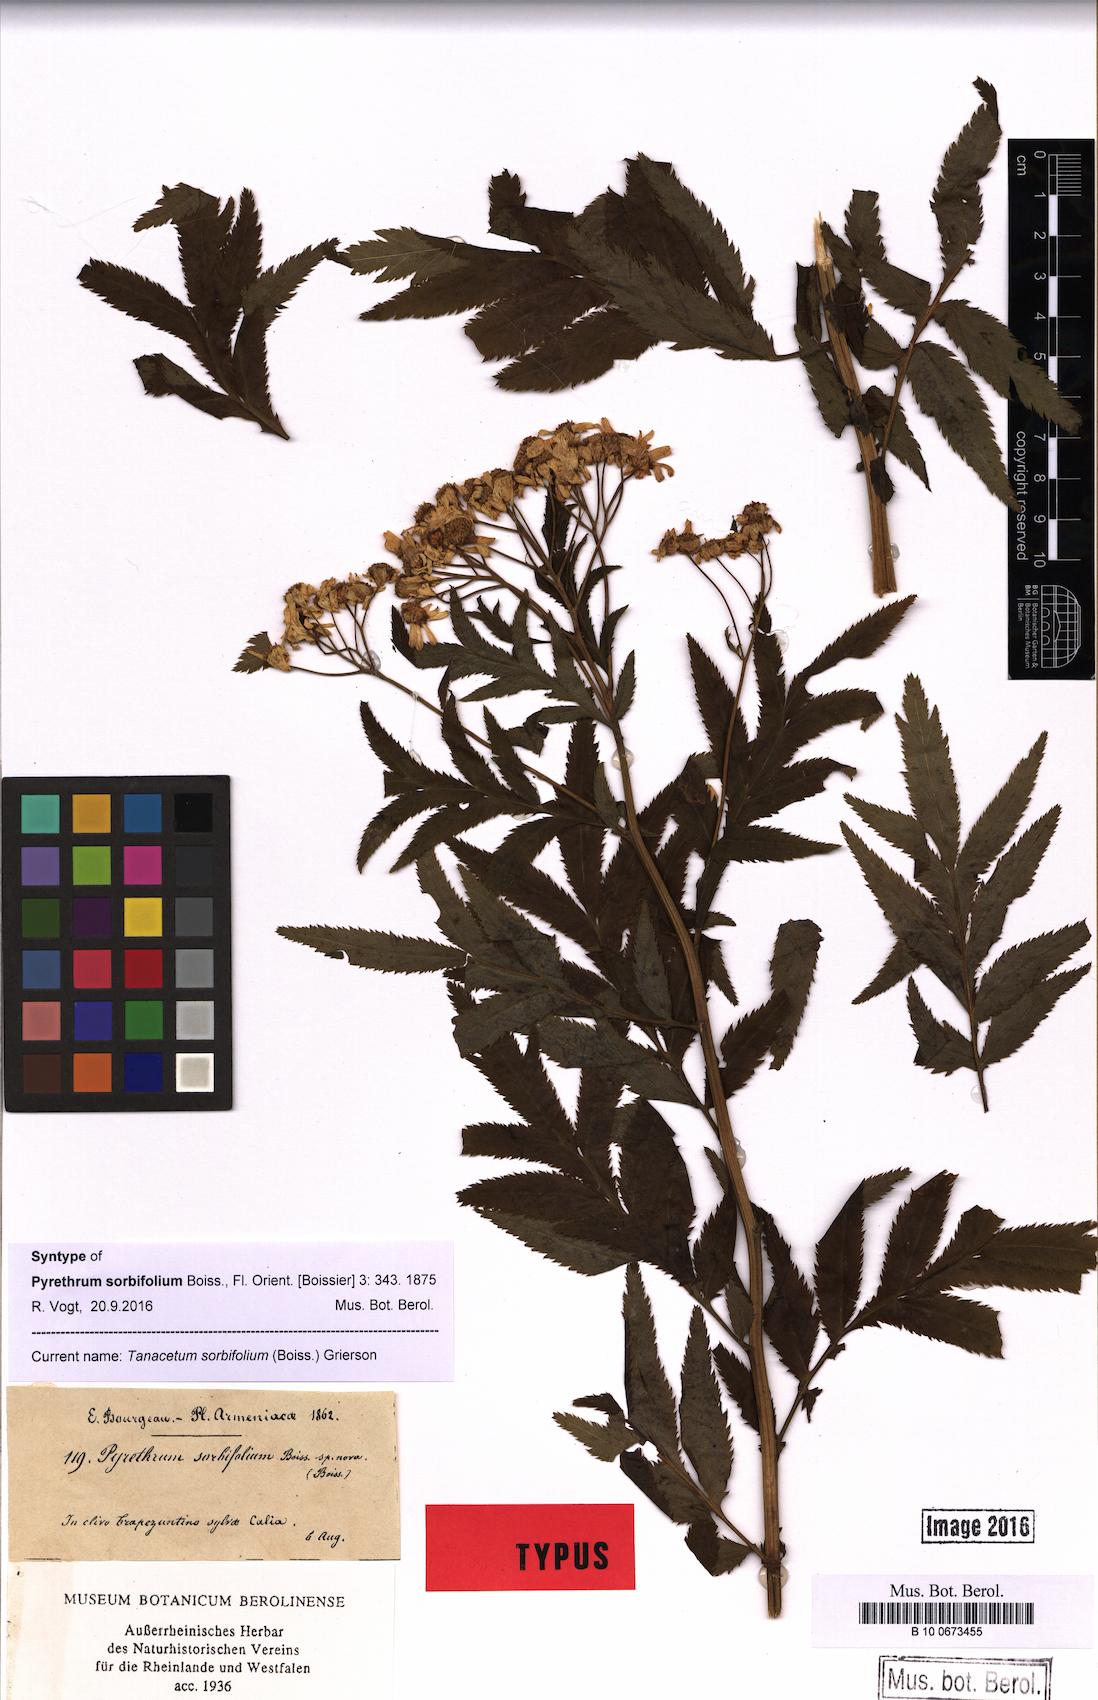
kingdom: Plantae
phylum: Tracheophyta
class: Magnoliopsida
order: Asterales
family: Asteraceae
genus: Tanacetum
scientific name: Tanacetum sorbifolium
